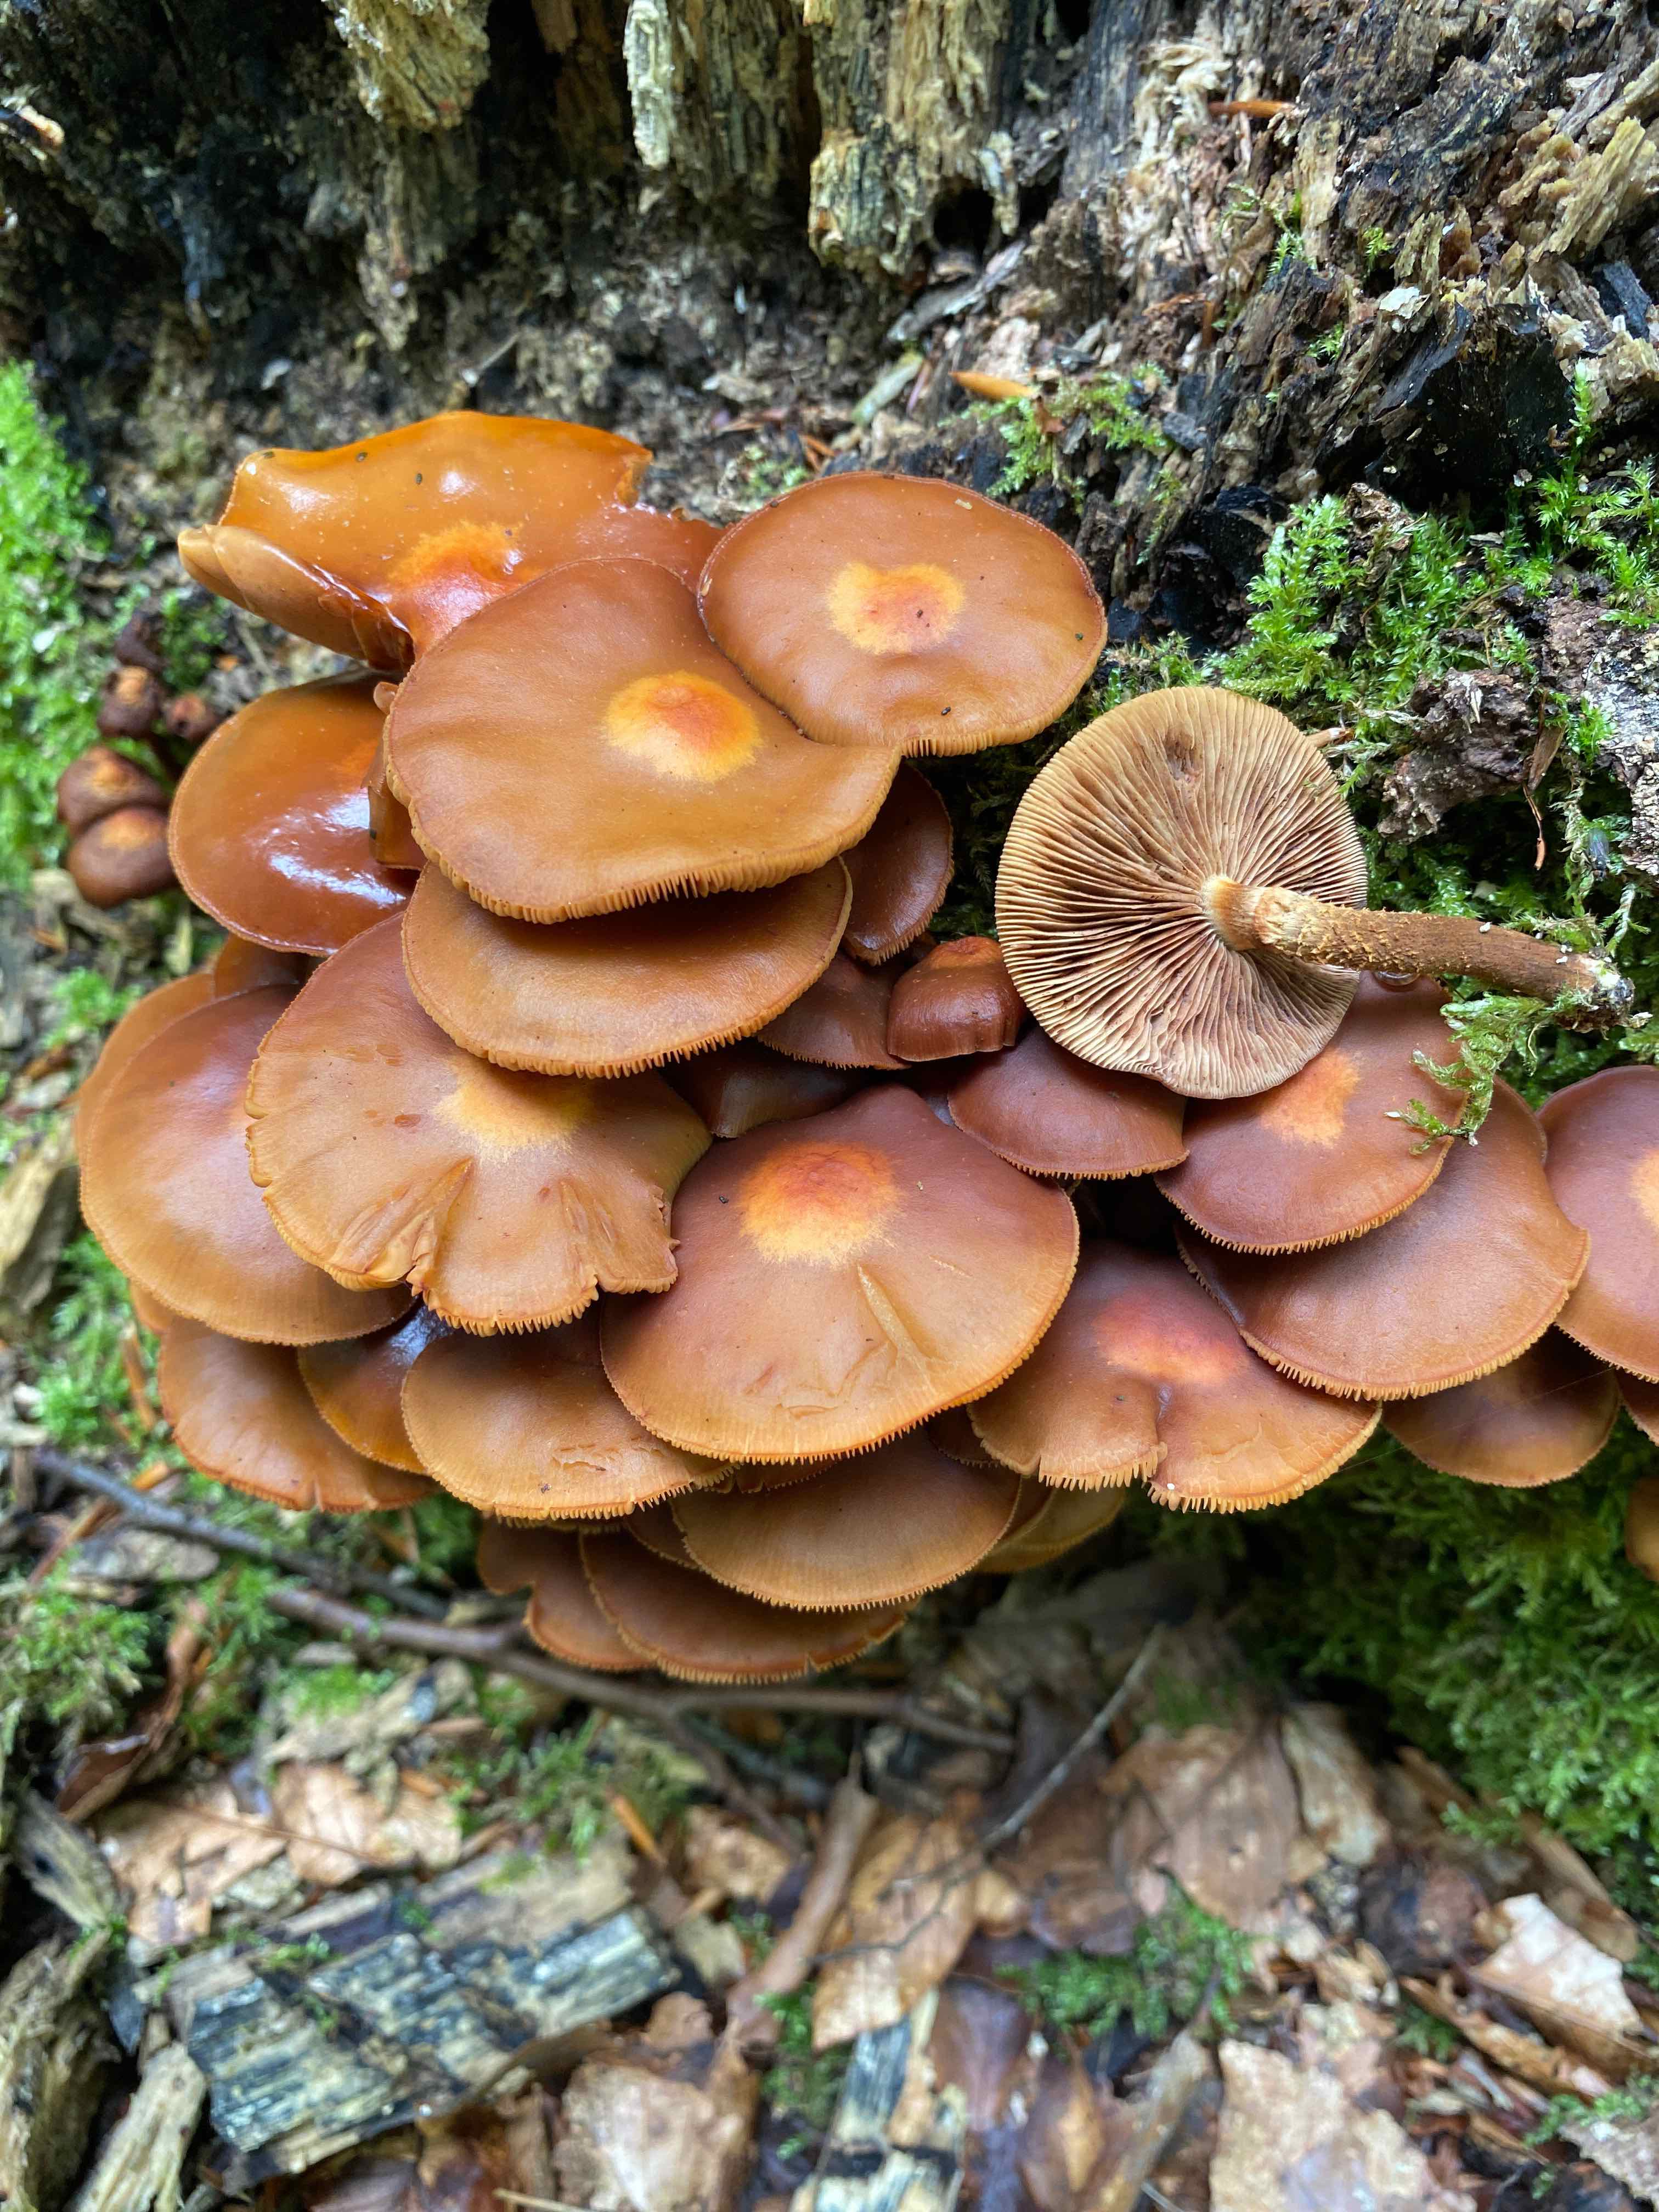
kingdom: Fungi
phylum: Basidiomycota
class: Agaricomycetes
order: Agaricales
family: Strophariaceae
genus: Kuehneromyces
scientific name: Kuehneromyces mutabilis
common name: foranderlig skælhat
